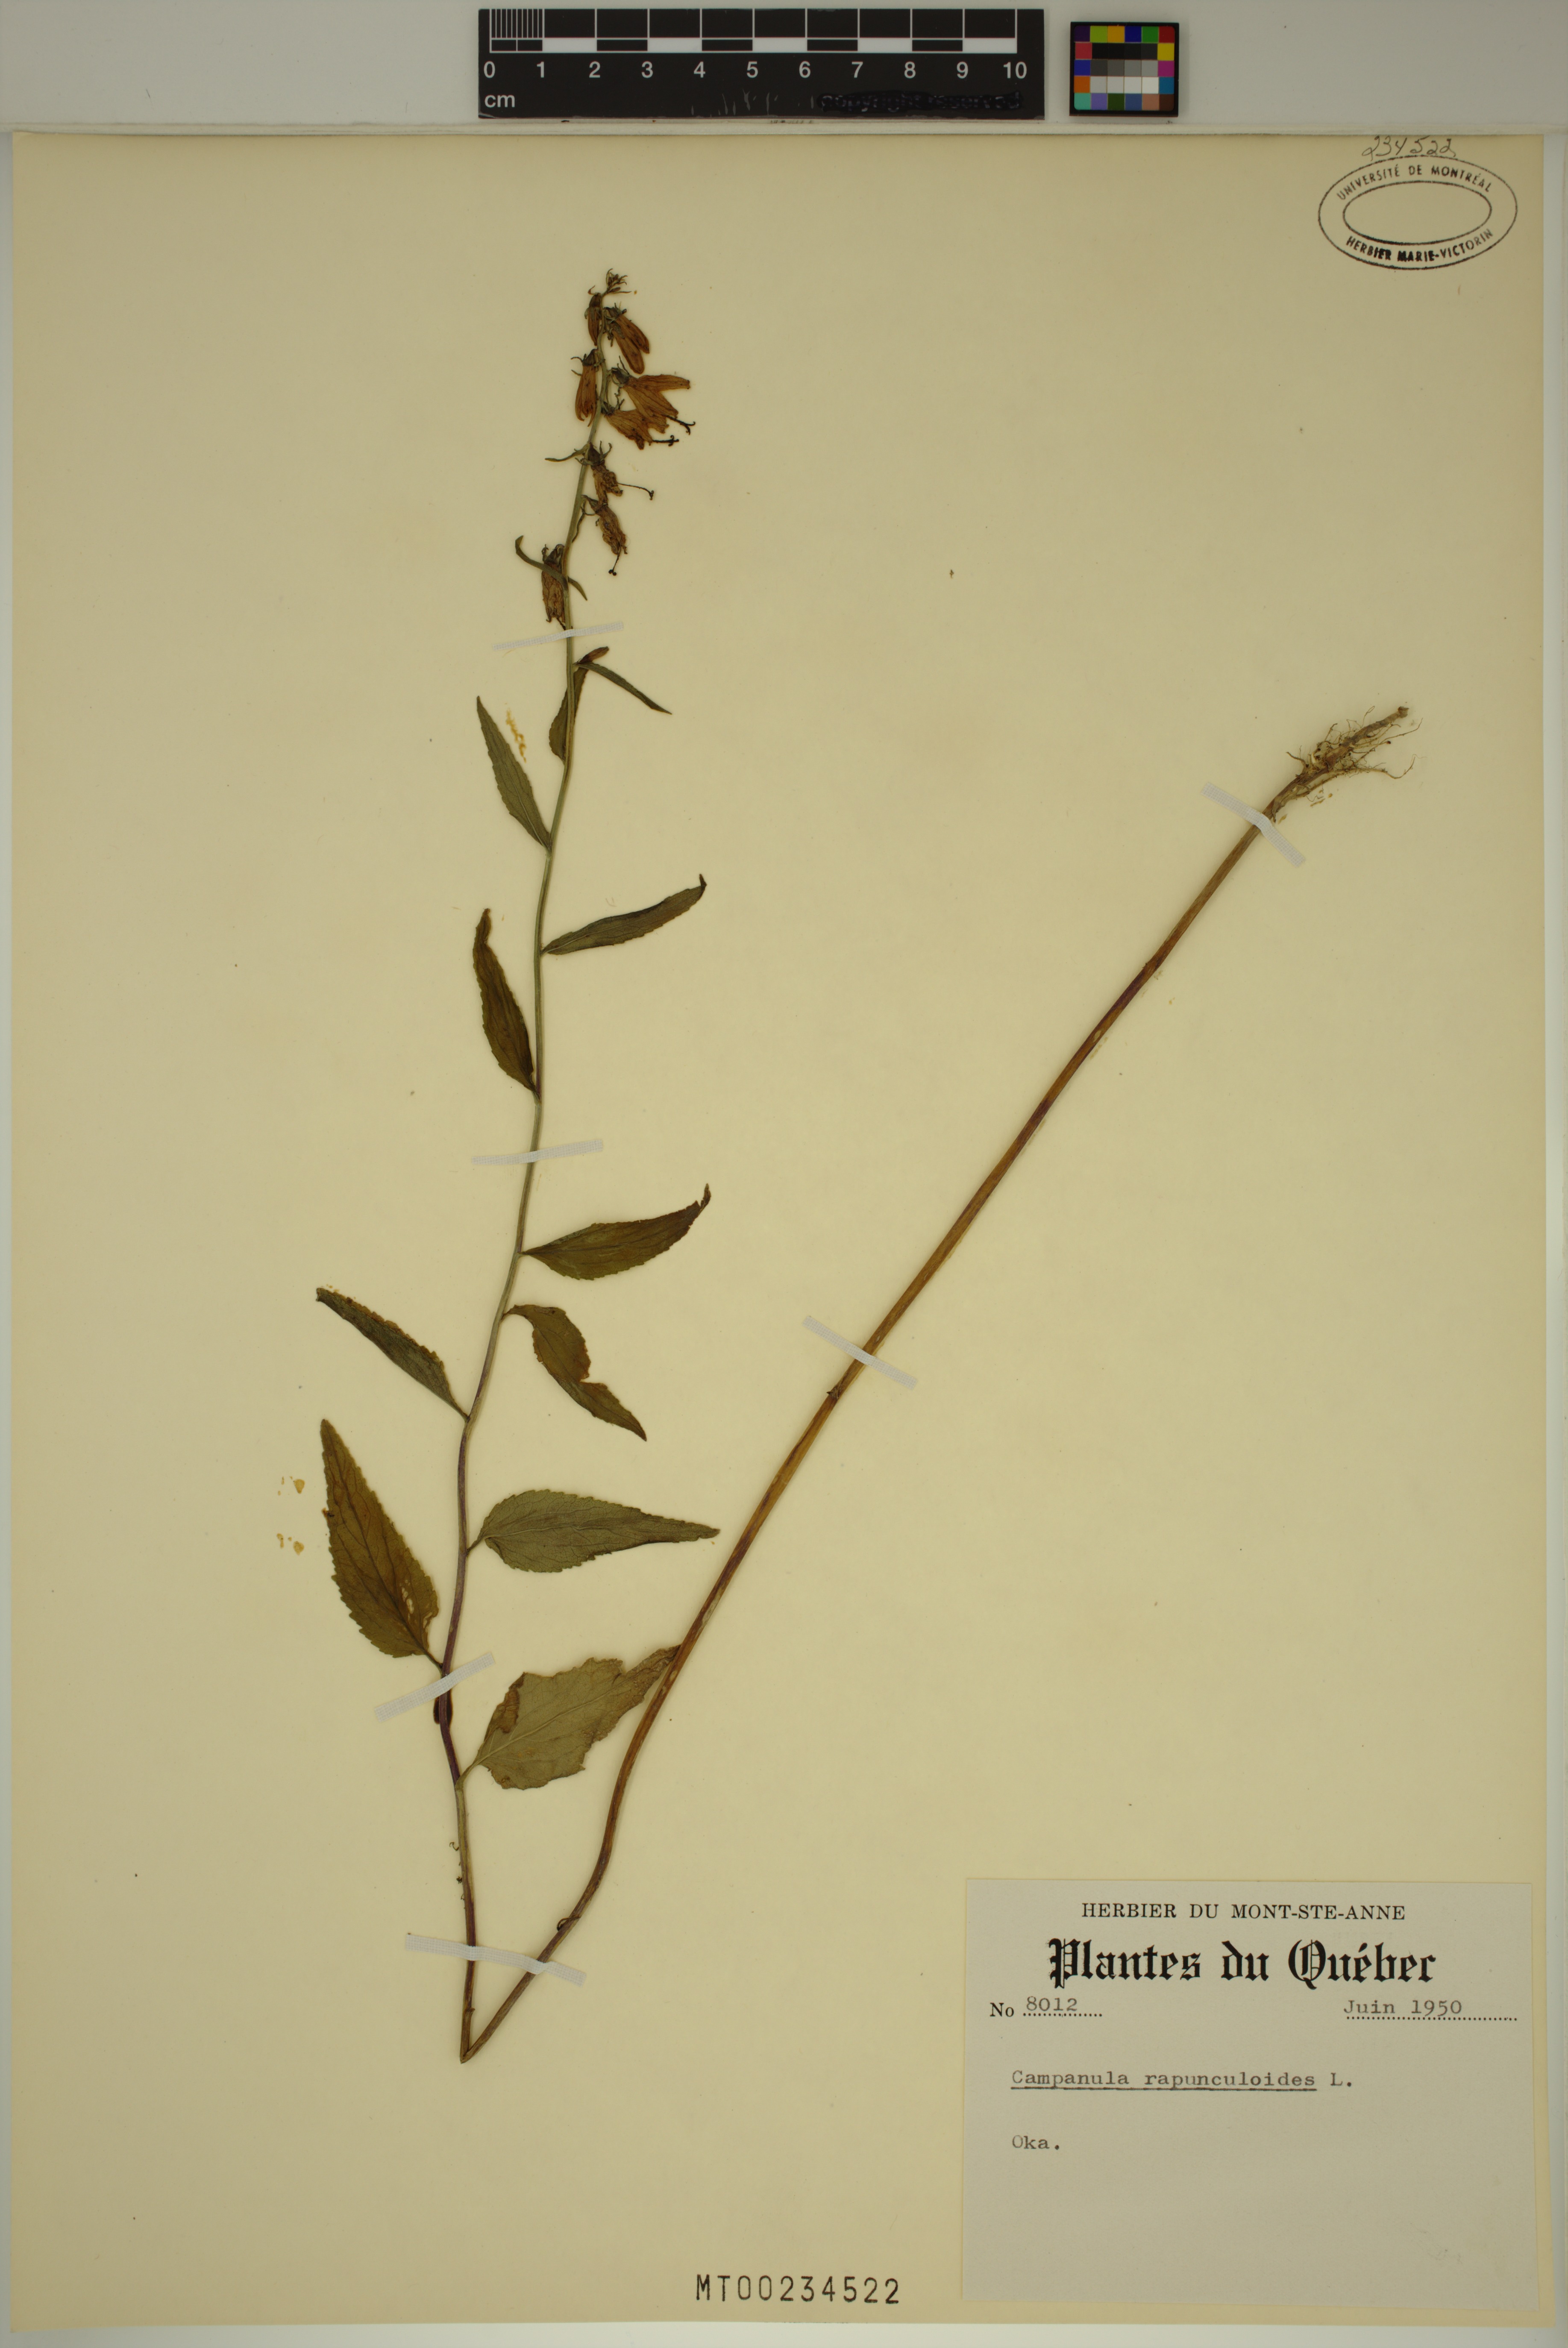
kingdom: Plantae
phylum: Tracheophyta
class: Magnoliopsida
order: Asterales
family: Campanulaceae
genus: Campanula
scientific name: Campanula rapunculoides
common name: Creeping bellflower
